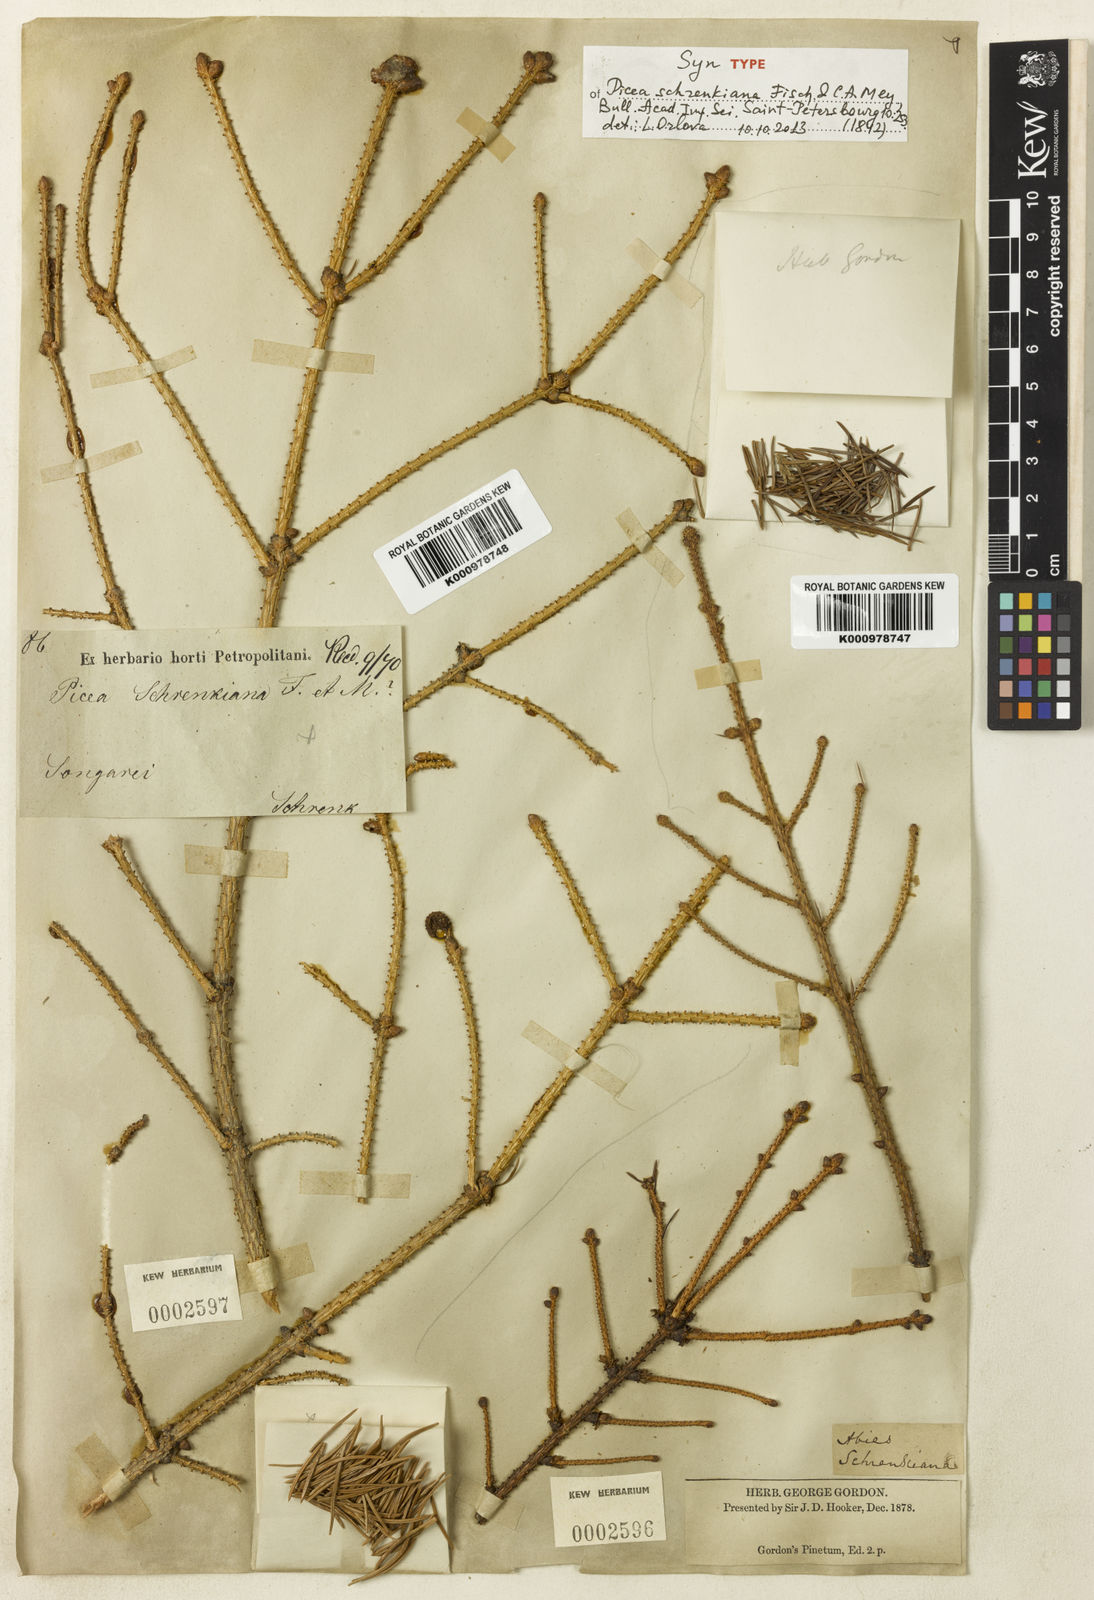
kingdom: Plantae
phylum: Tracheophyta
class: Pinopsida
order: Pinales
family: Pinaceae
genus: Picea
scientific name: Picea schrenkiana
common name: Asian spruce
